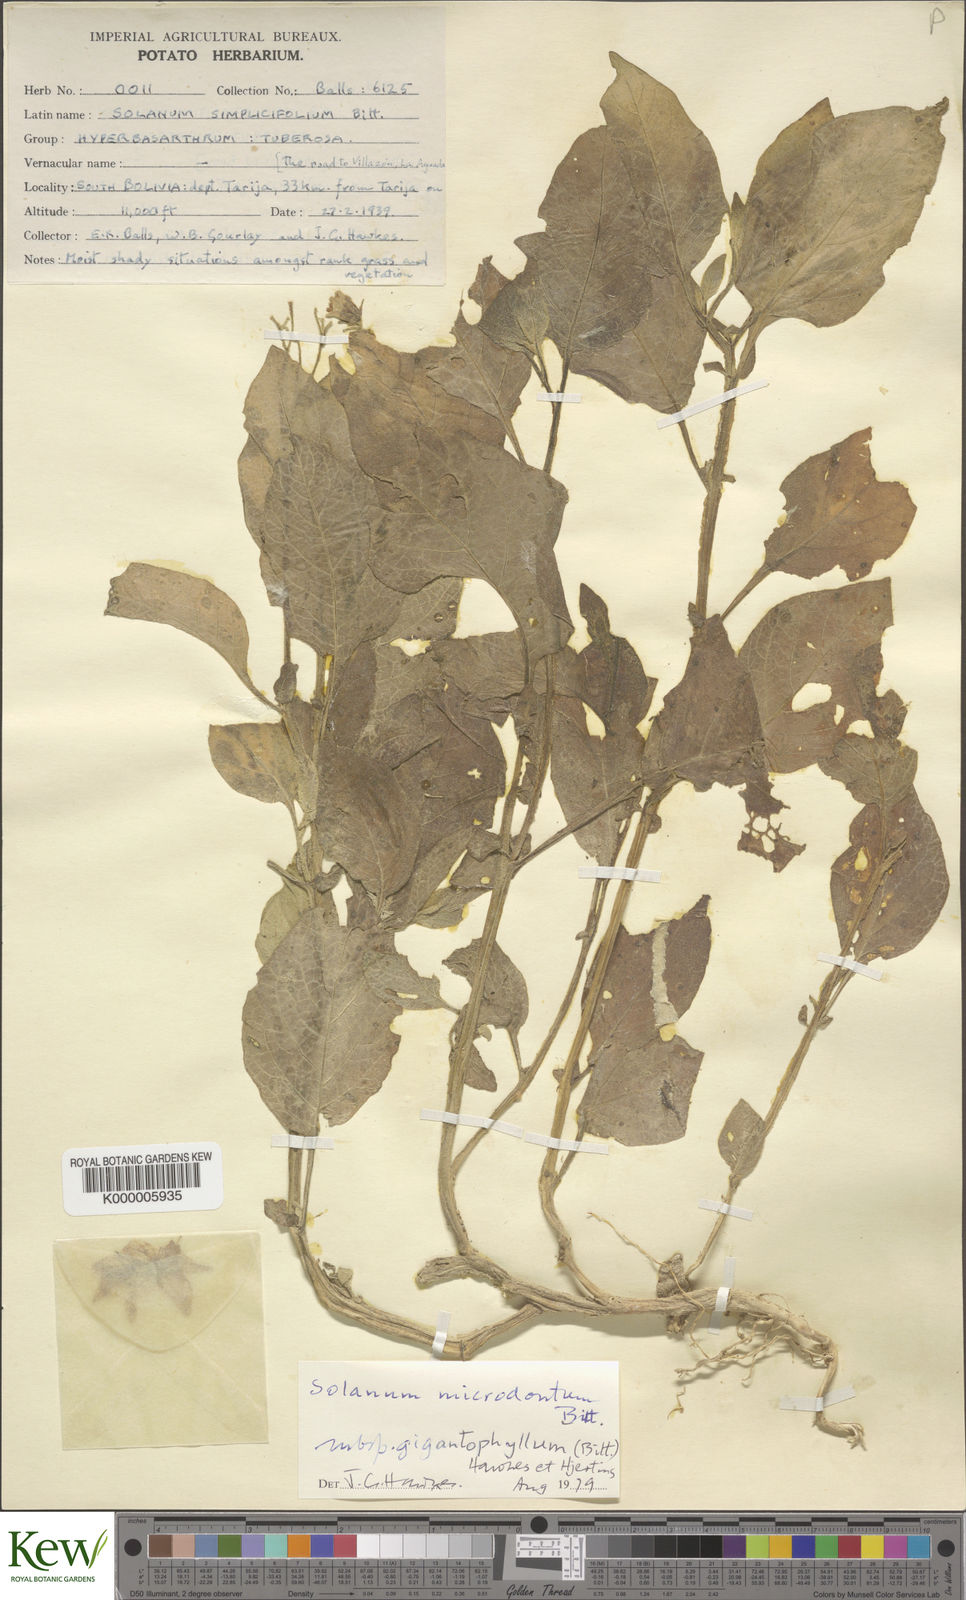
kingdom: Plantae
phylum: Tracheophyta
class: Magnoliopsida
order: Solanales
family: Solanaceae
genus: Solanum
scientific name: Solanum microdontum
